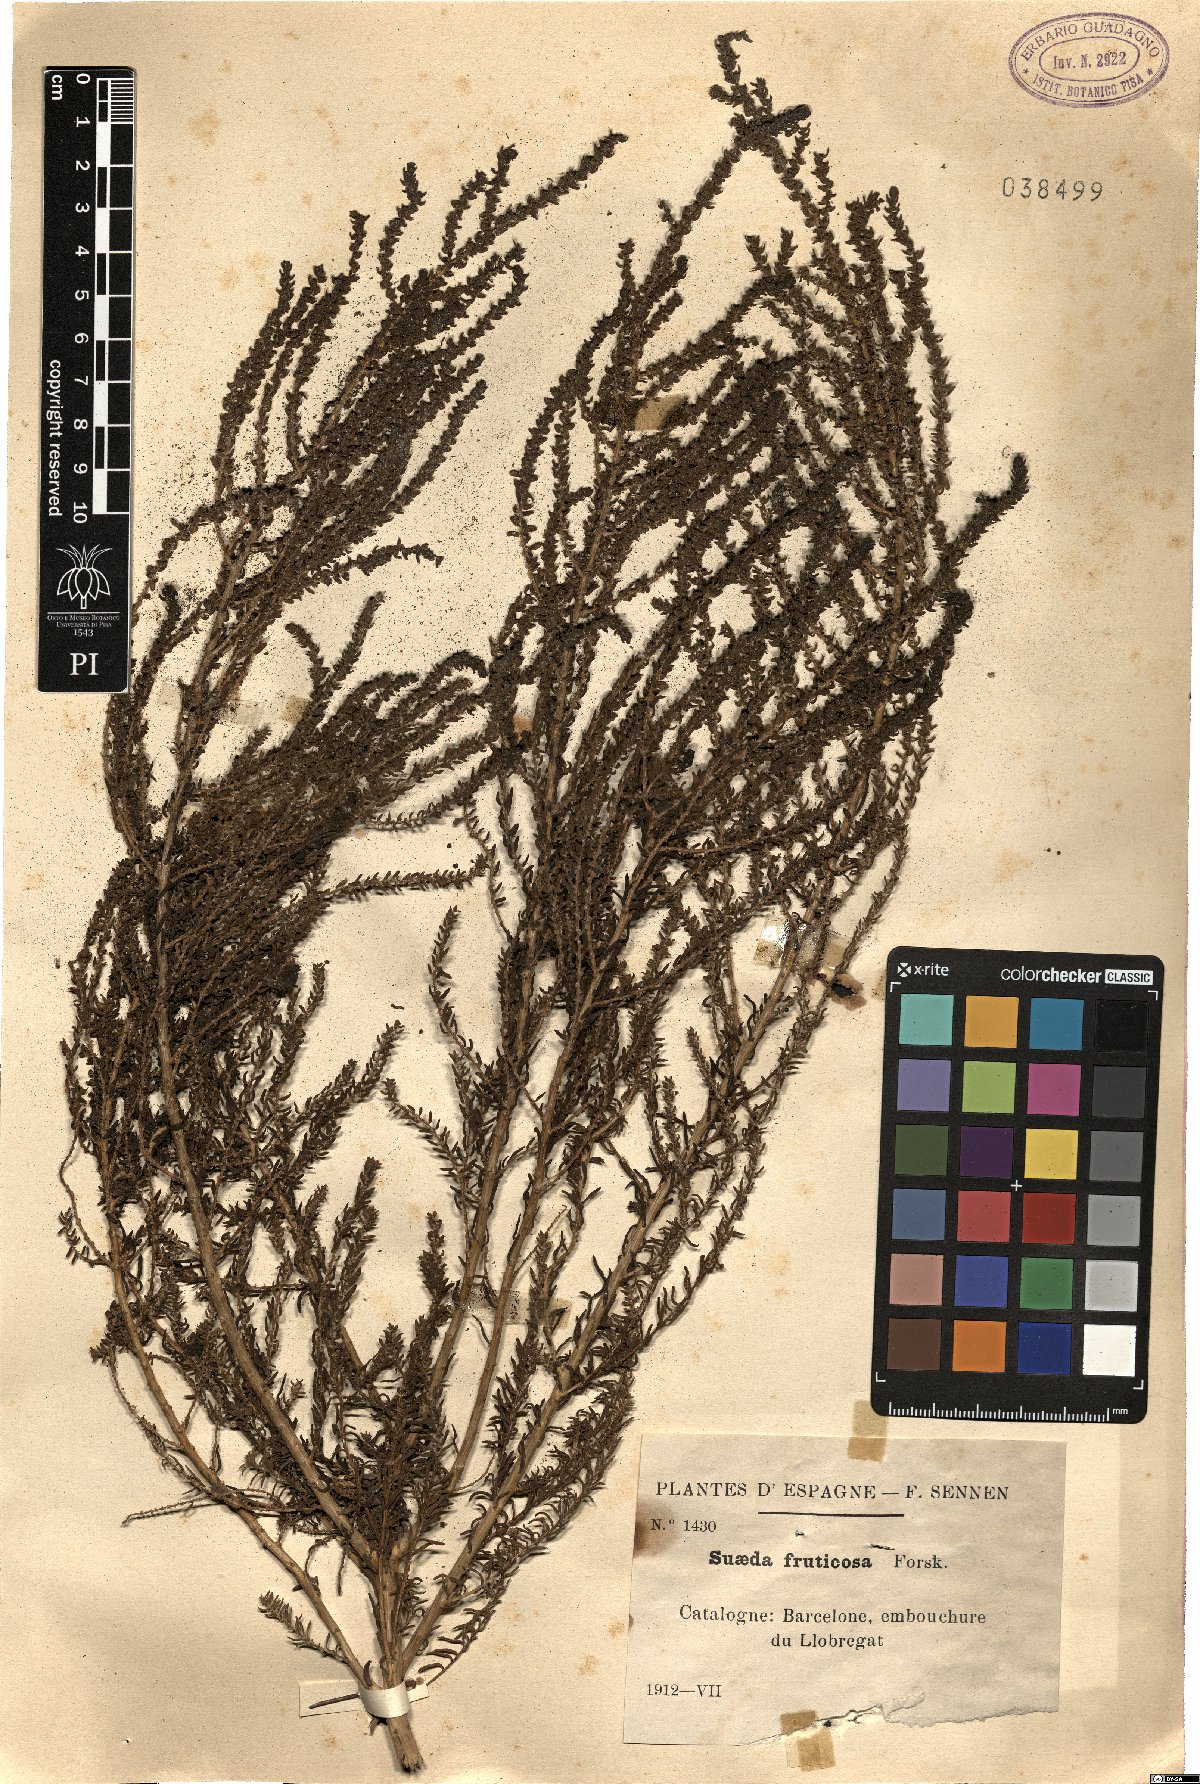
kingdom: Plantae
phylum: Tracheophyta
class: Magnoliopsida
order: Caryophyllales
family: Amaranthaceae
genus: Suaeda
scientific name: Suaeda fruticosa
